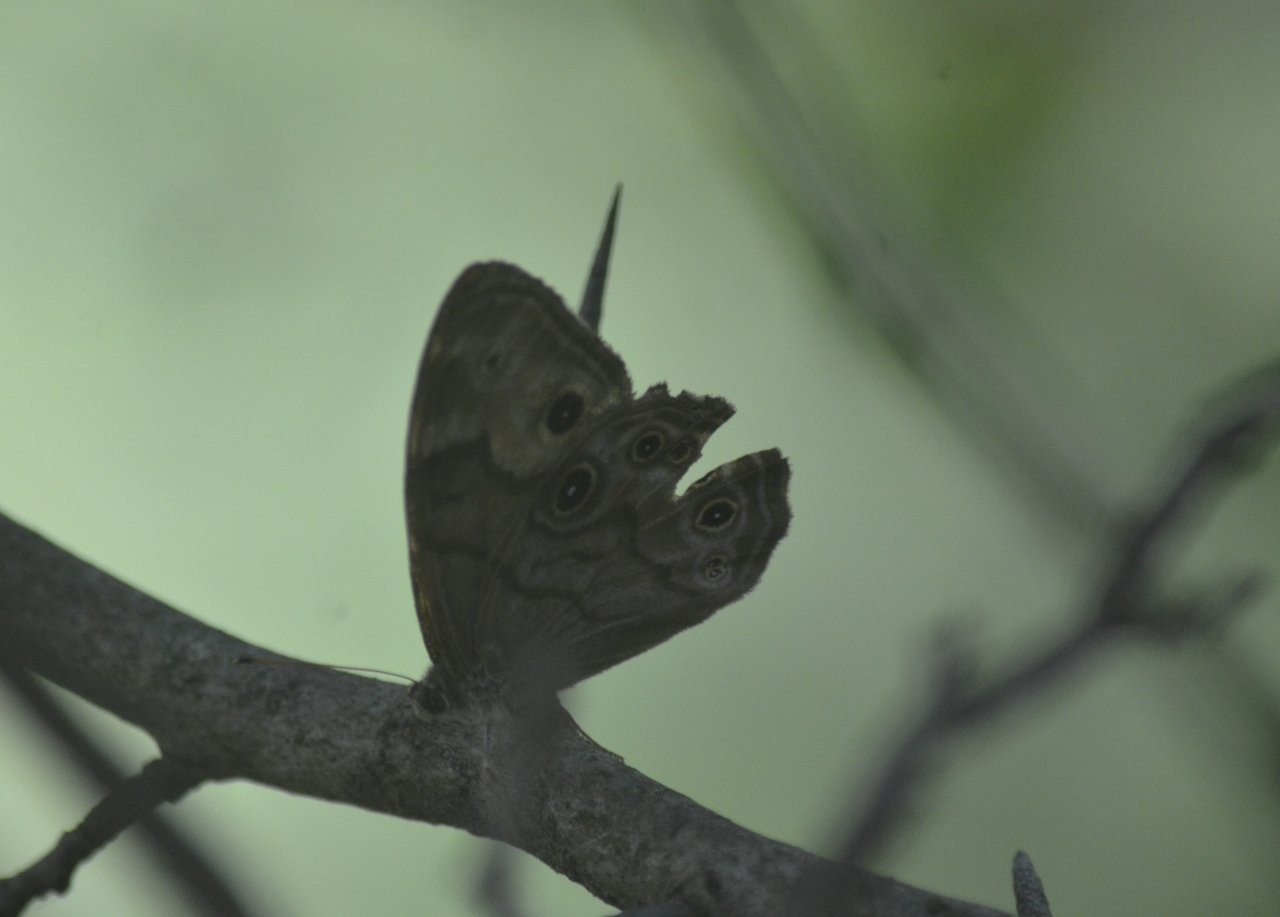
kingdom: Animalia
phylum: Arthropoda
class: Insecta
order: Lepidoptera
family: Nymphalidae
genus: Lethe
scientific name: Lethe anthedon
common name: Northern Pearly-Eye
